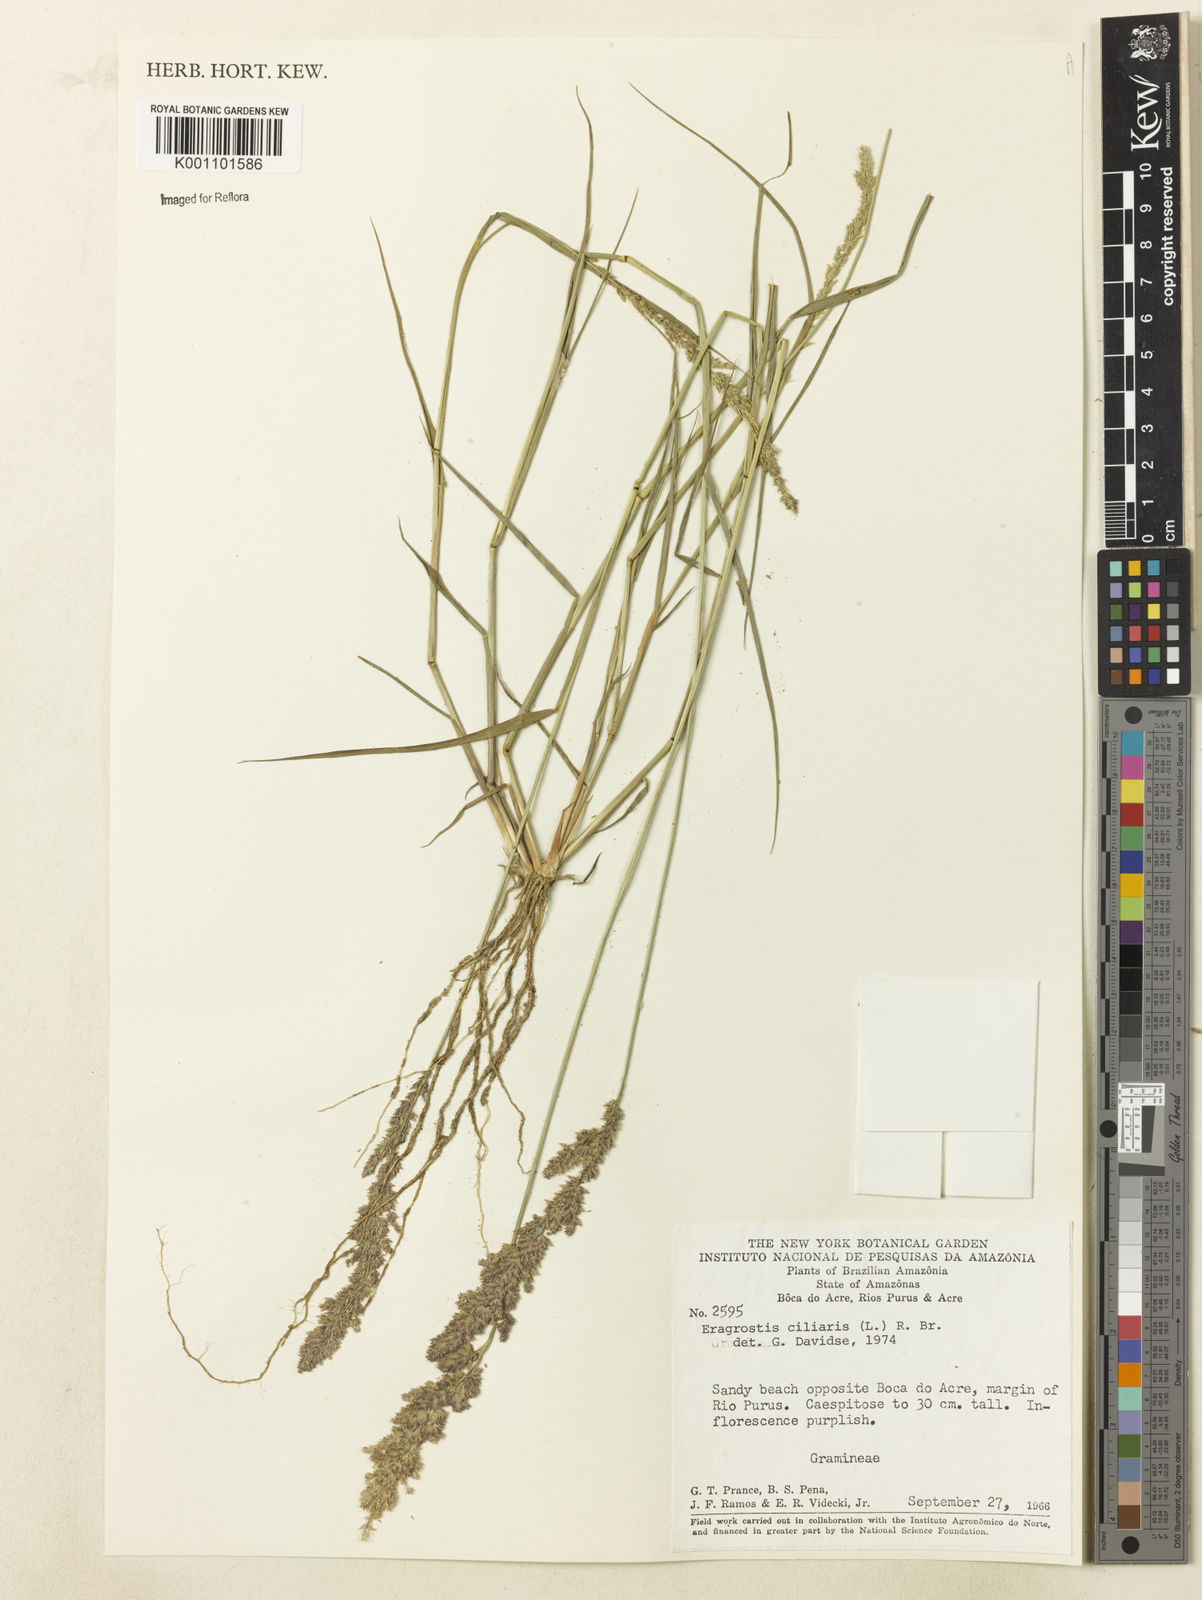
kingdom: Plantae
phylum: Tracheophyta
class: Liliopsida
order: Poales
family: Poaceae
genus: Eragrostis
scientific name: Eragrostis ciliaris
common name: Gophertail lovegrass
